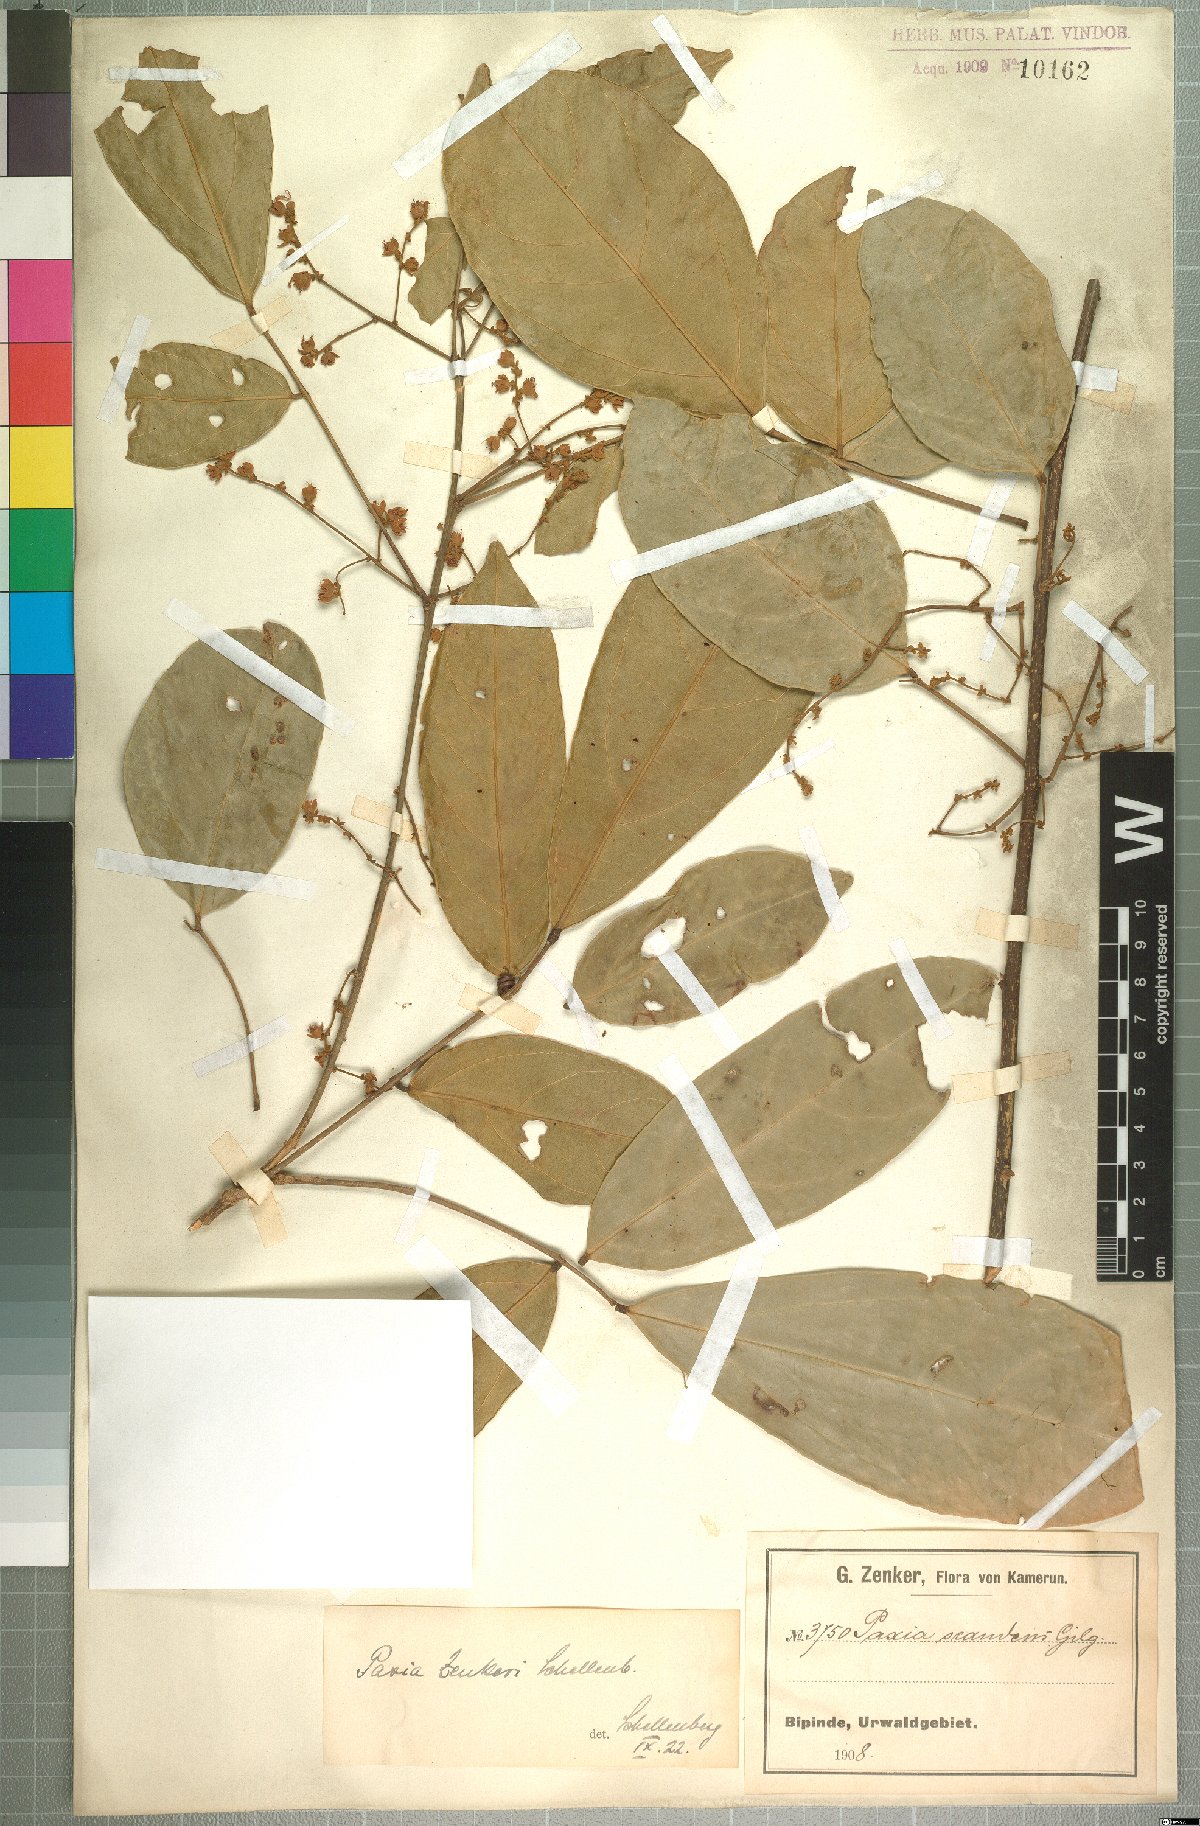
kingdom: Plantae
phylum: Tracheophyta
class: Magnoliopsida
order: Oxalidales
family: Connaraceae
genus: Rourea
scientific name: Rourea myriantha
